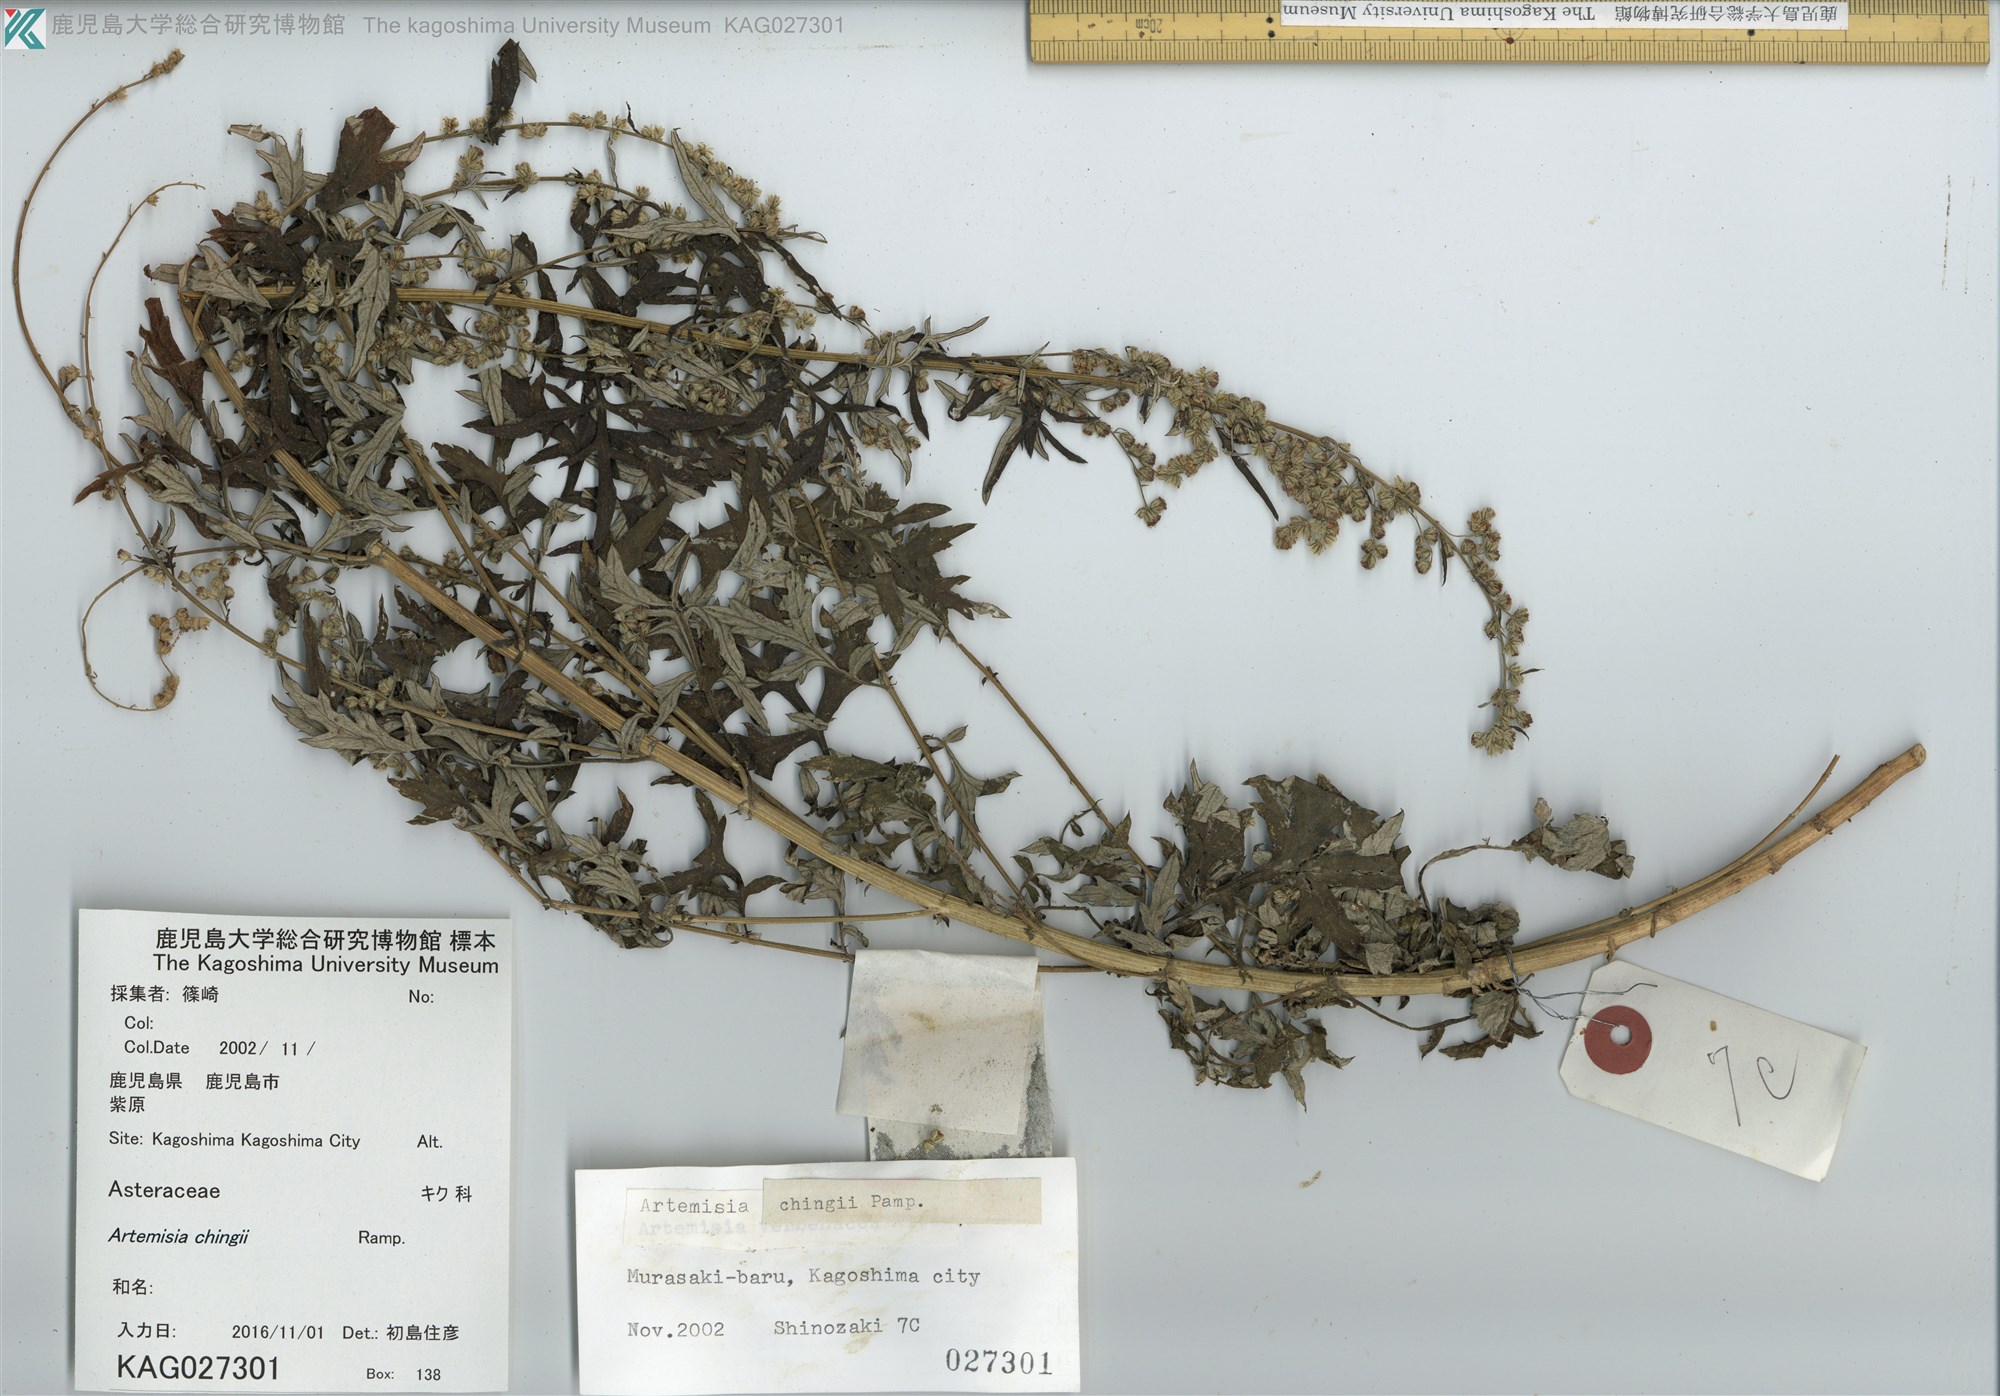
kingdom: Plantae
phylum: Tracheophyta
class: Magnoliopsida
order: Asterales
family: Asteraceae
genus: Artemisia
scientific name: Artemisia chingii
